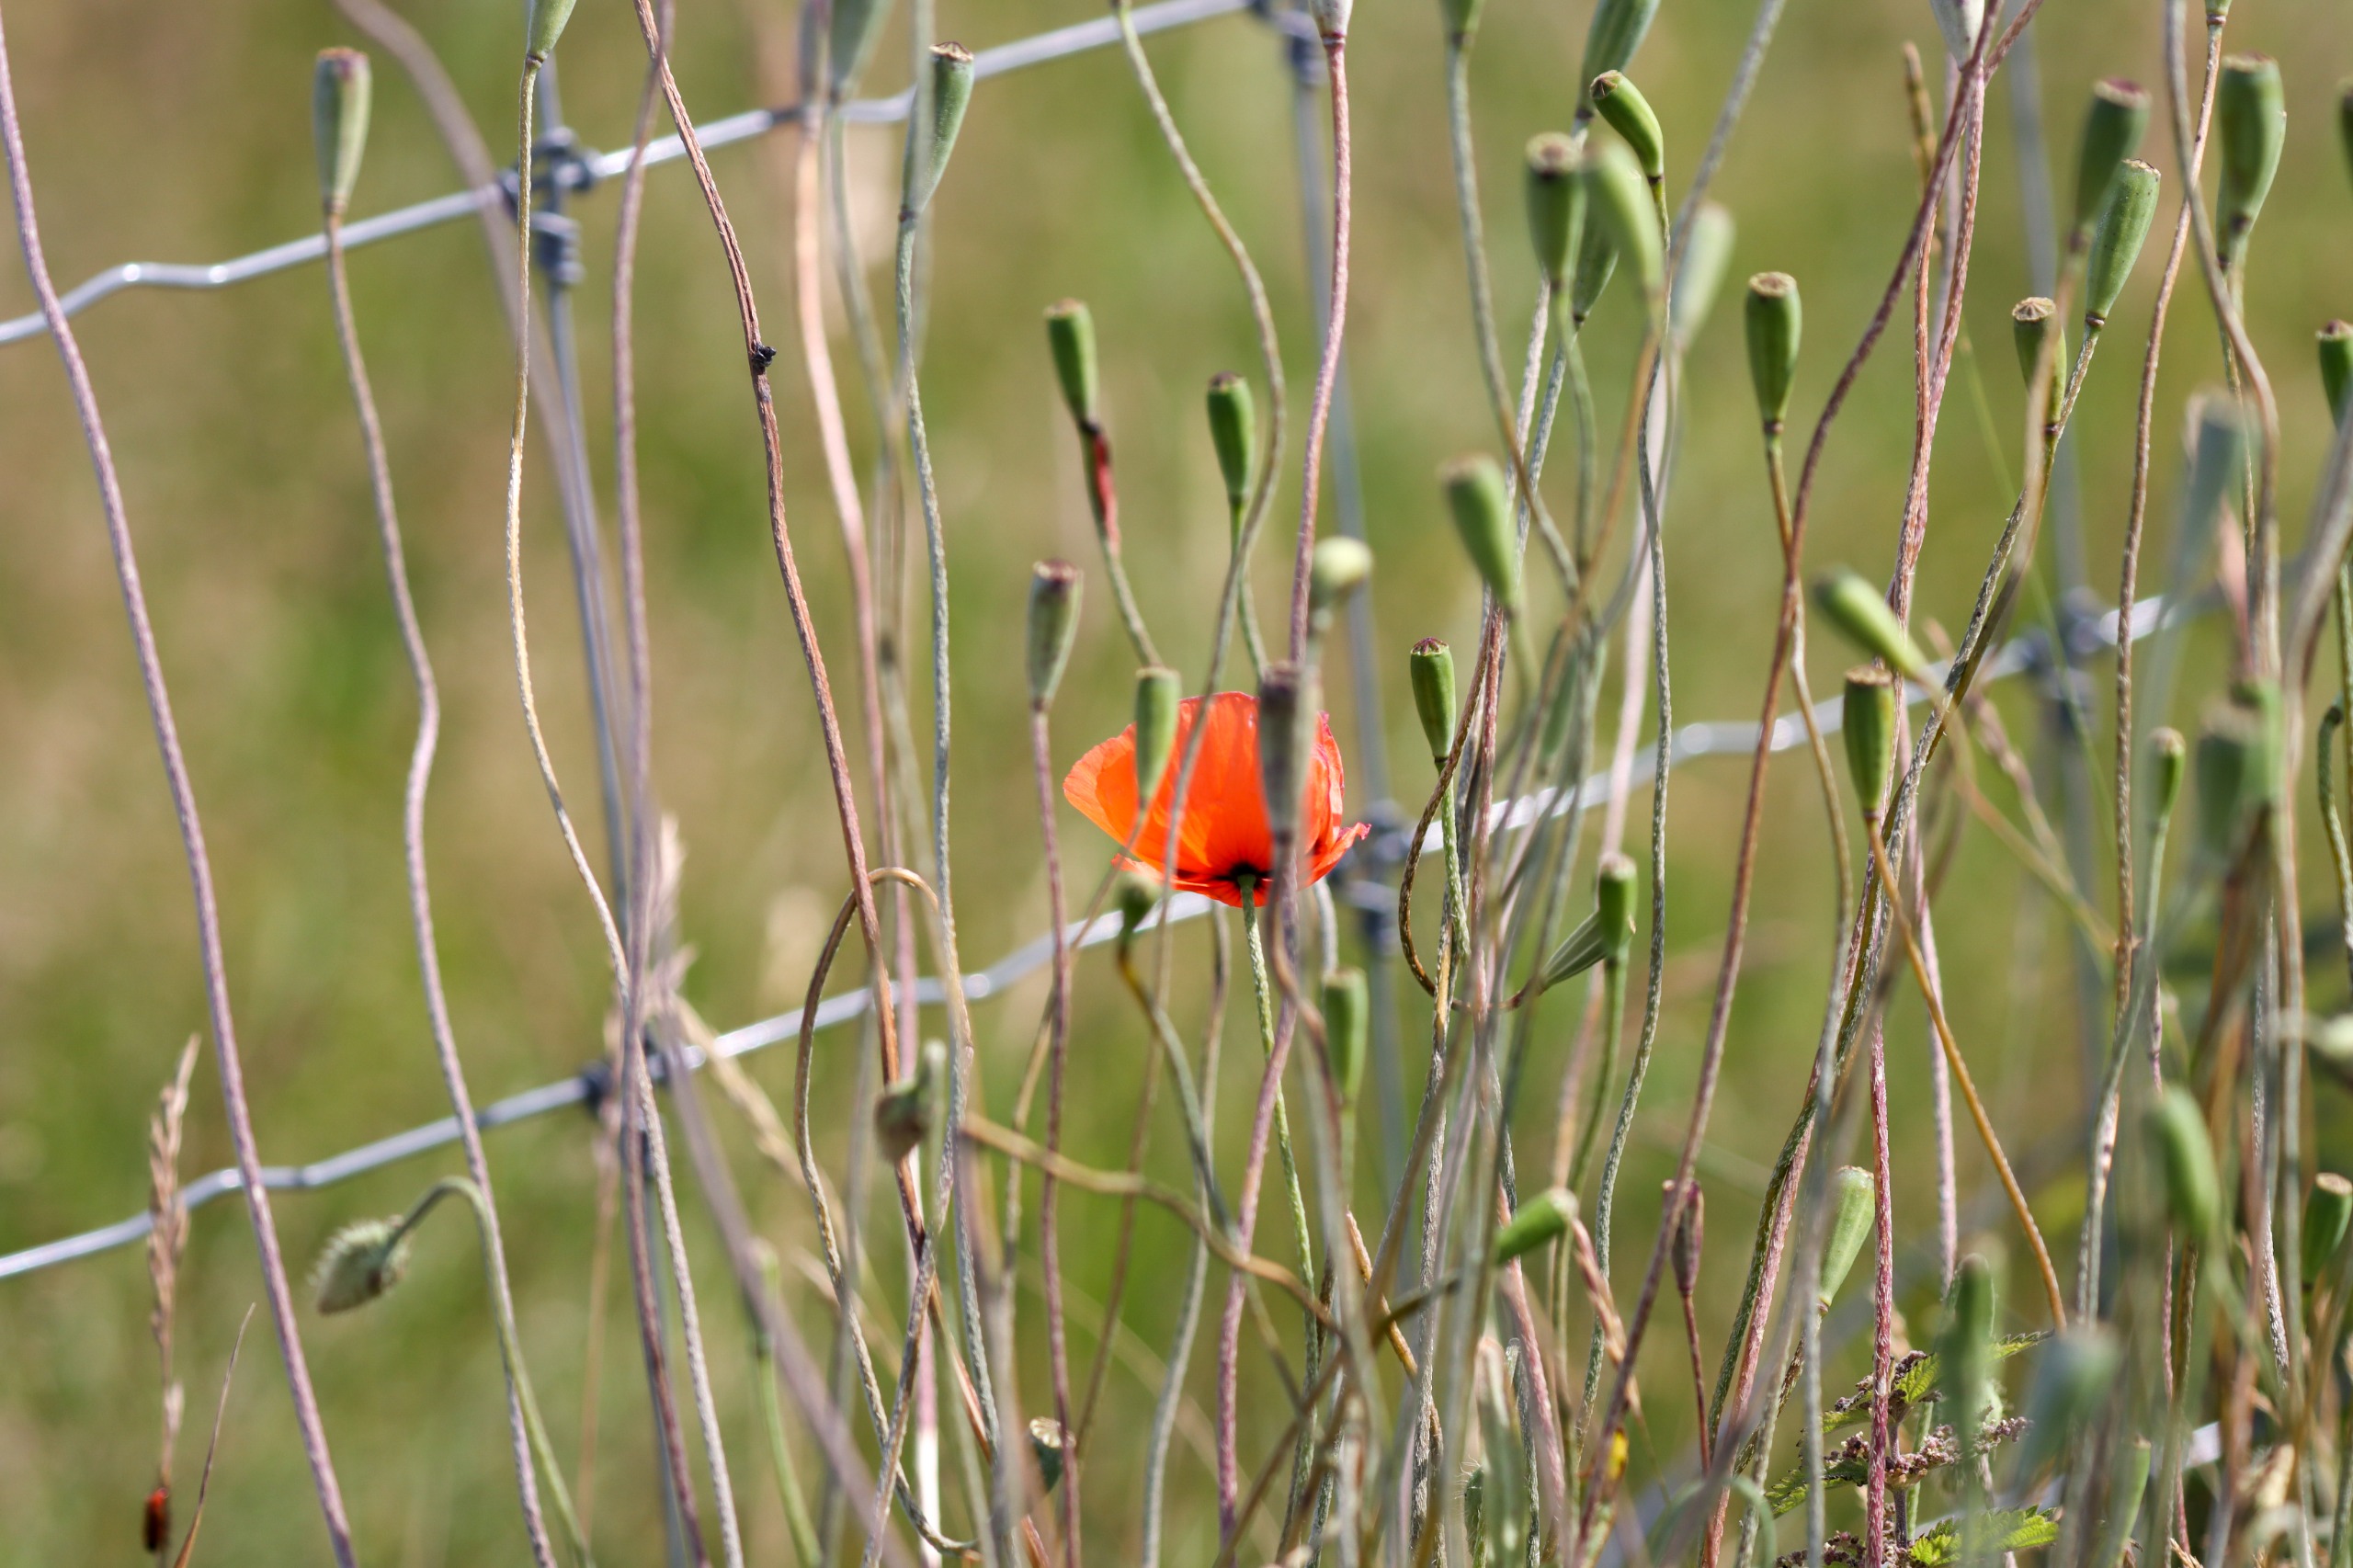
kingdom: Plantae
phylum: Tracheophyta
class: Magnoliopsida
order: Ranunculales
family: Papaveraceae
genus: Papaver
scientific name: Papaver dubium
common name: Gærde-valmue
